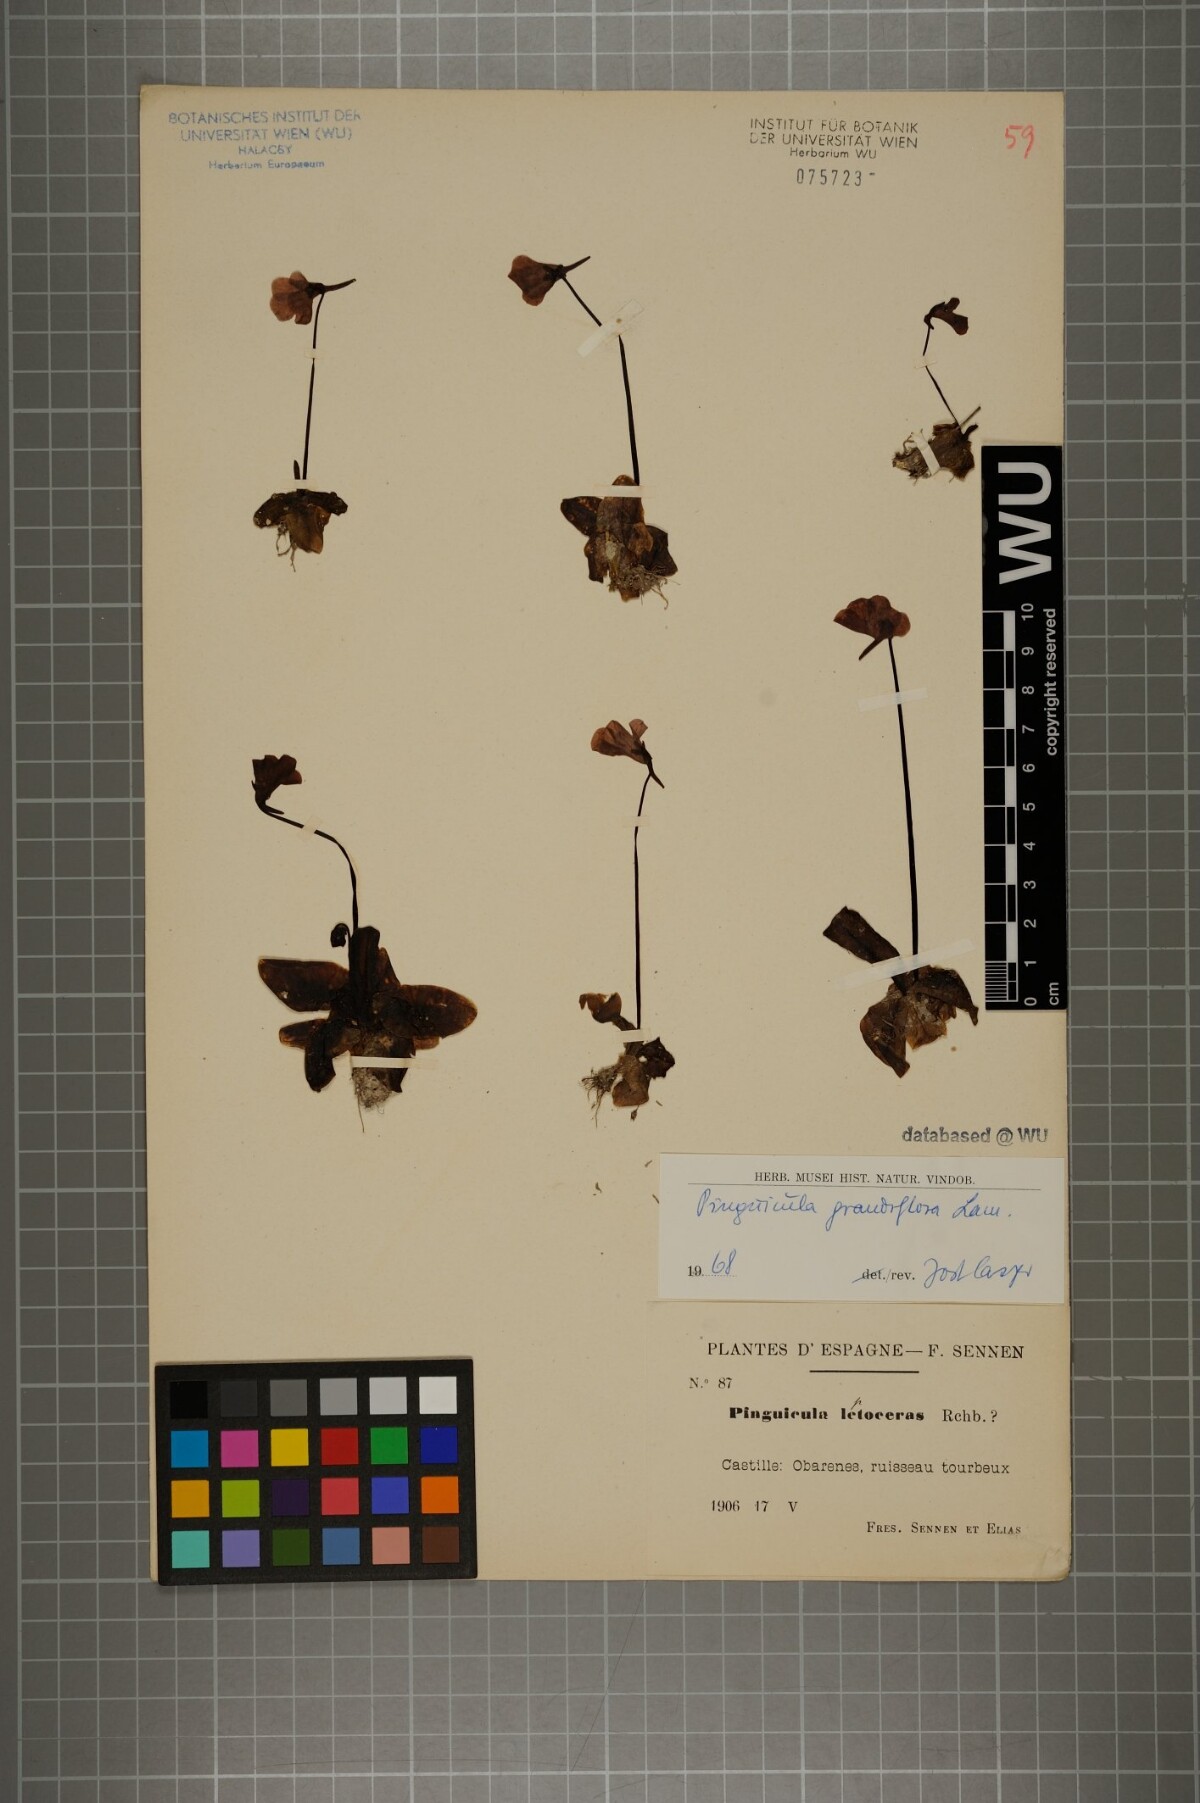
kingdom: Plantae
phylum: Tracheophyta
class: Magnoliopsida
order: Lamiales
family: Lentibulariaceae
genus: Pinguicula
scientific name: Pinguicula grandiflora
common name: Large-flowered butterwort
